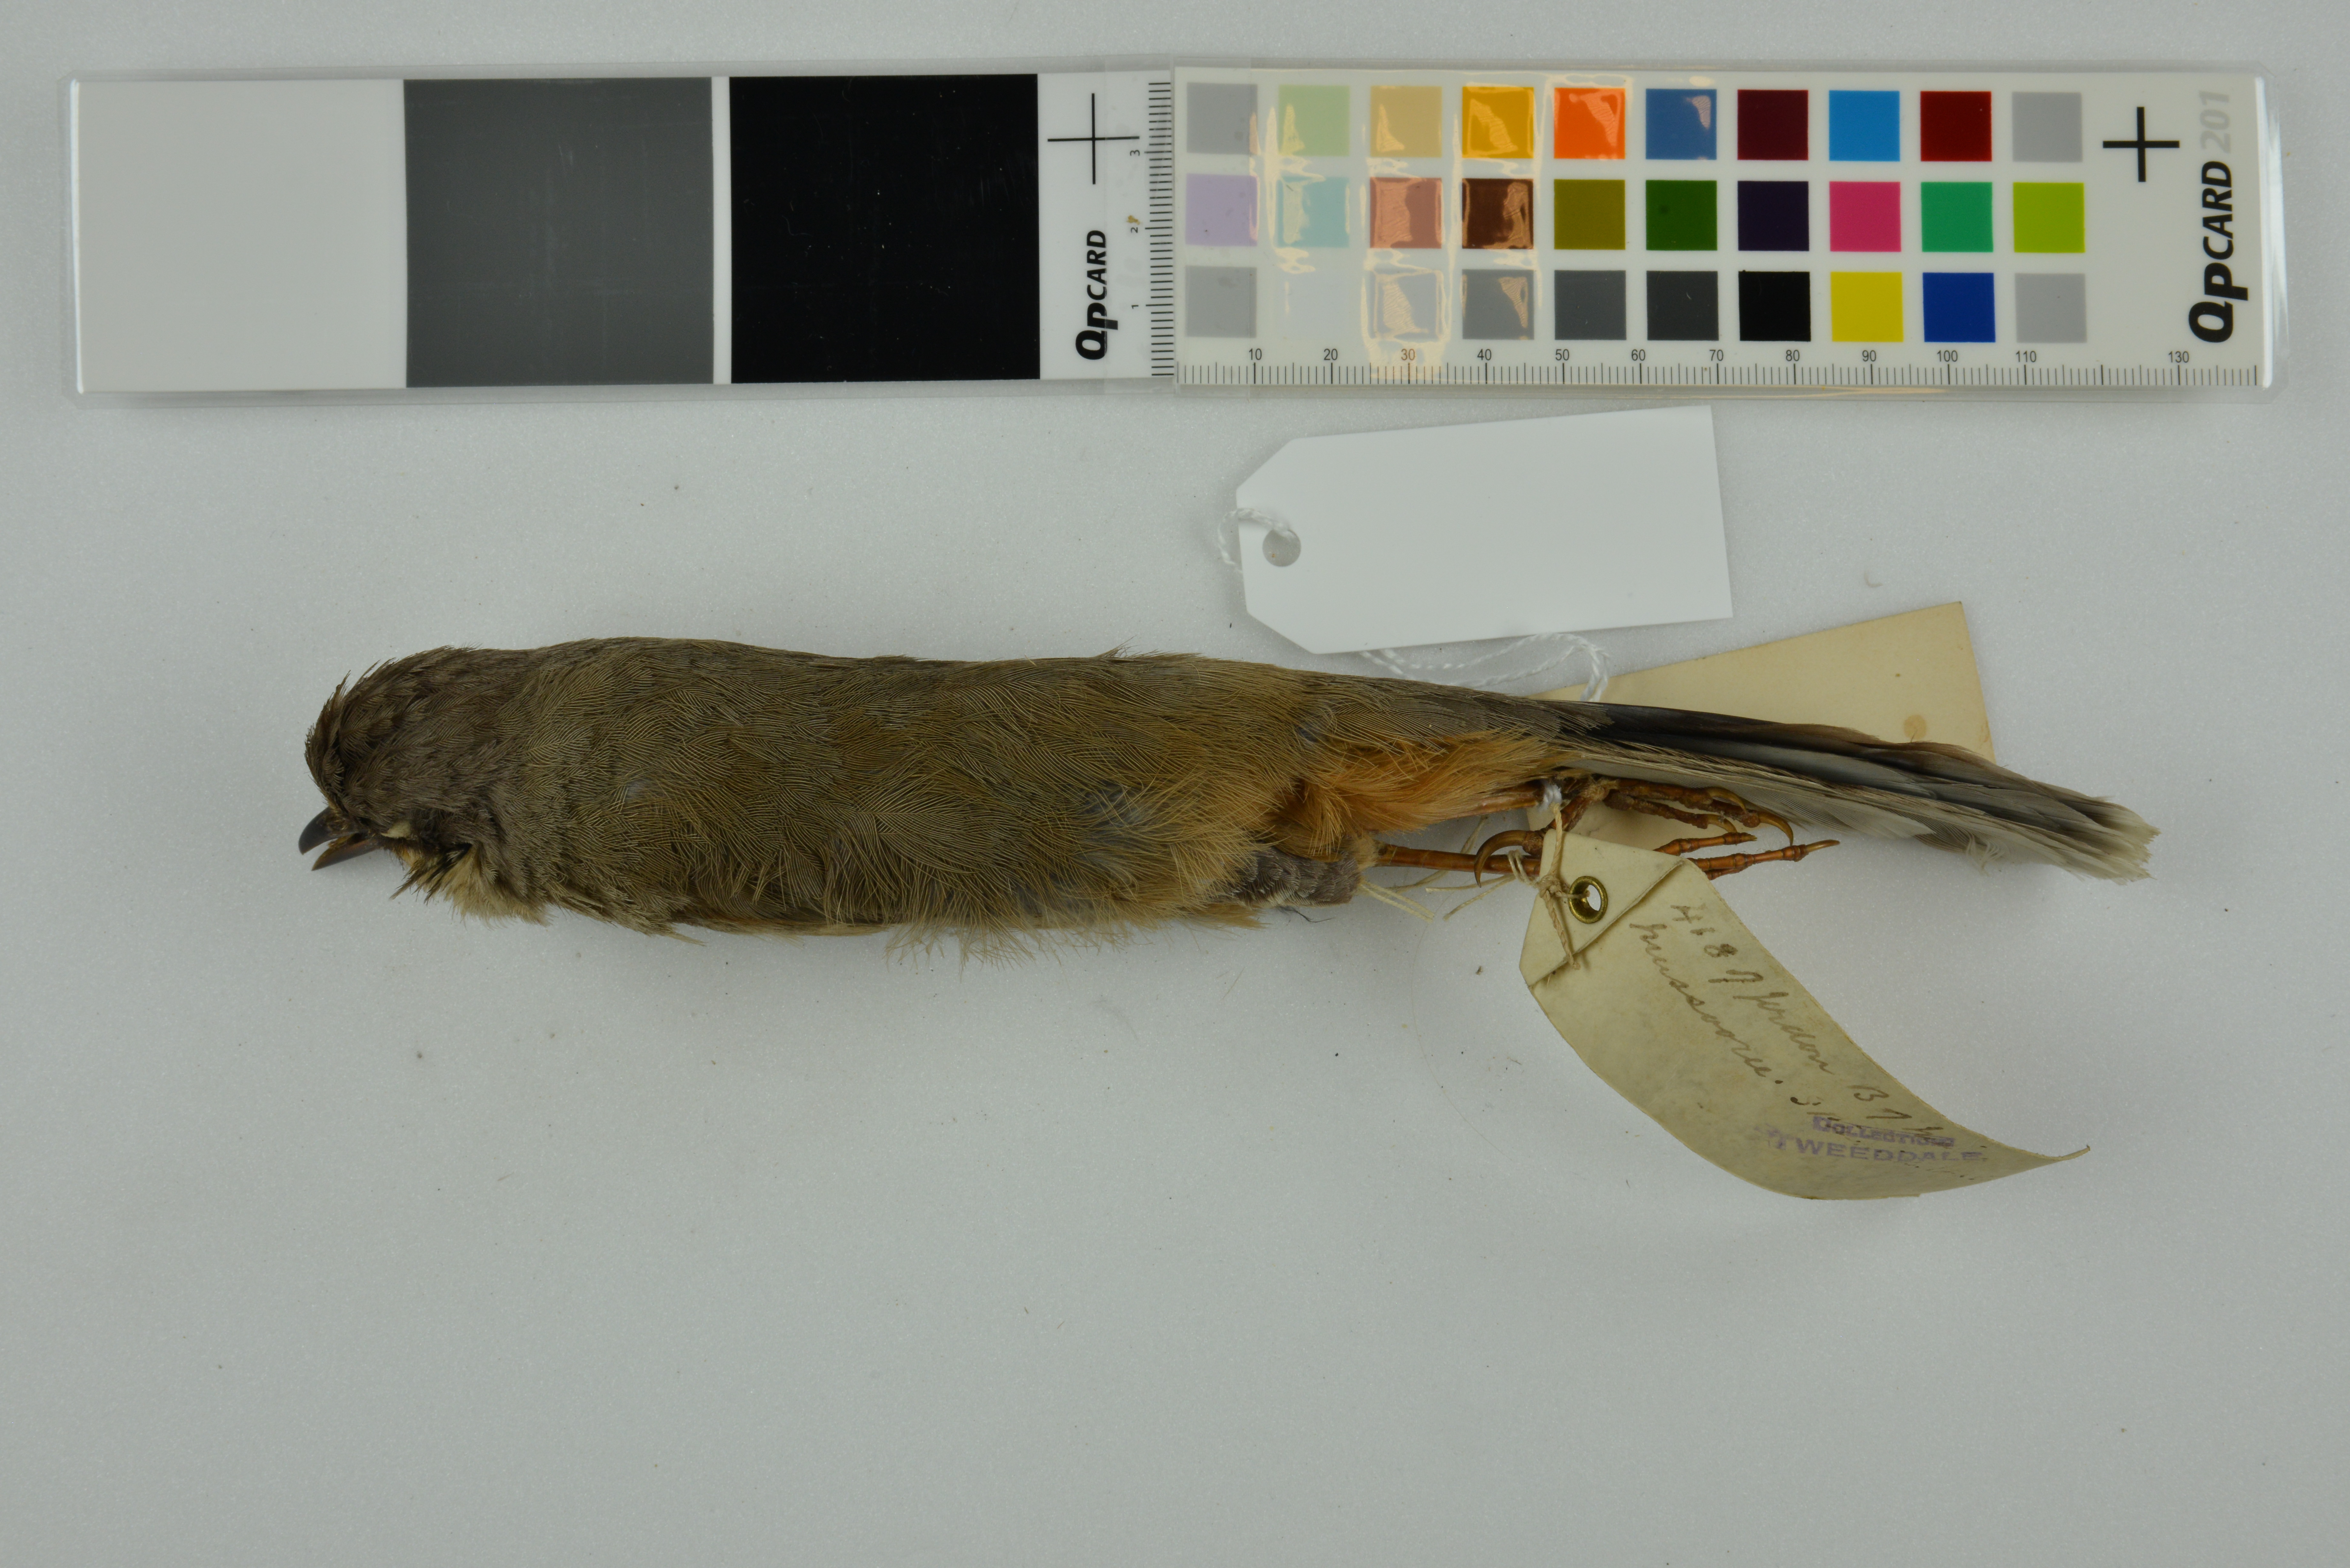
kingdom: Animalia
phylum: Chordata
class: Aves
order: Passeriformes
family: Leiothrichidae
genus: Trochalopteron
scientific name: Trochalopteron variegatum
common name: Variegated laughingthrush
